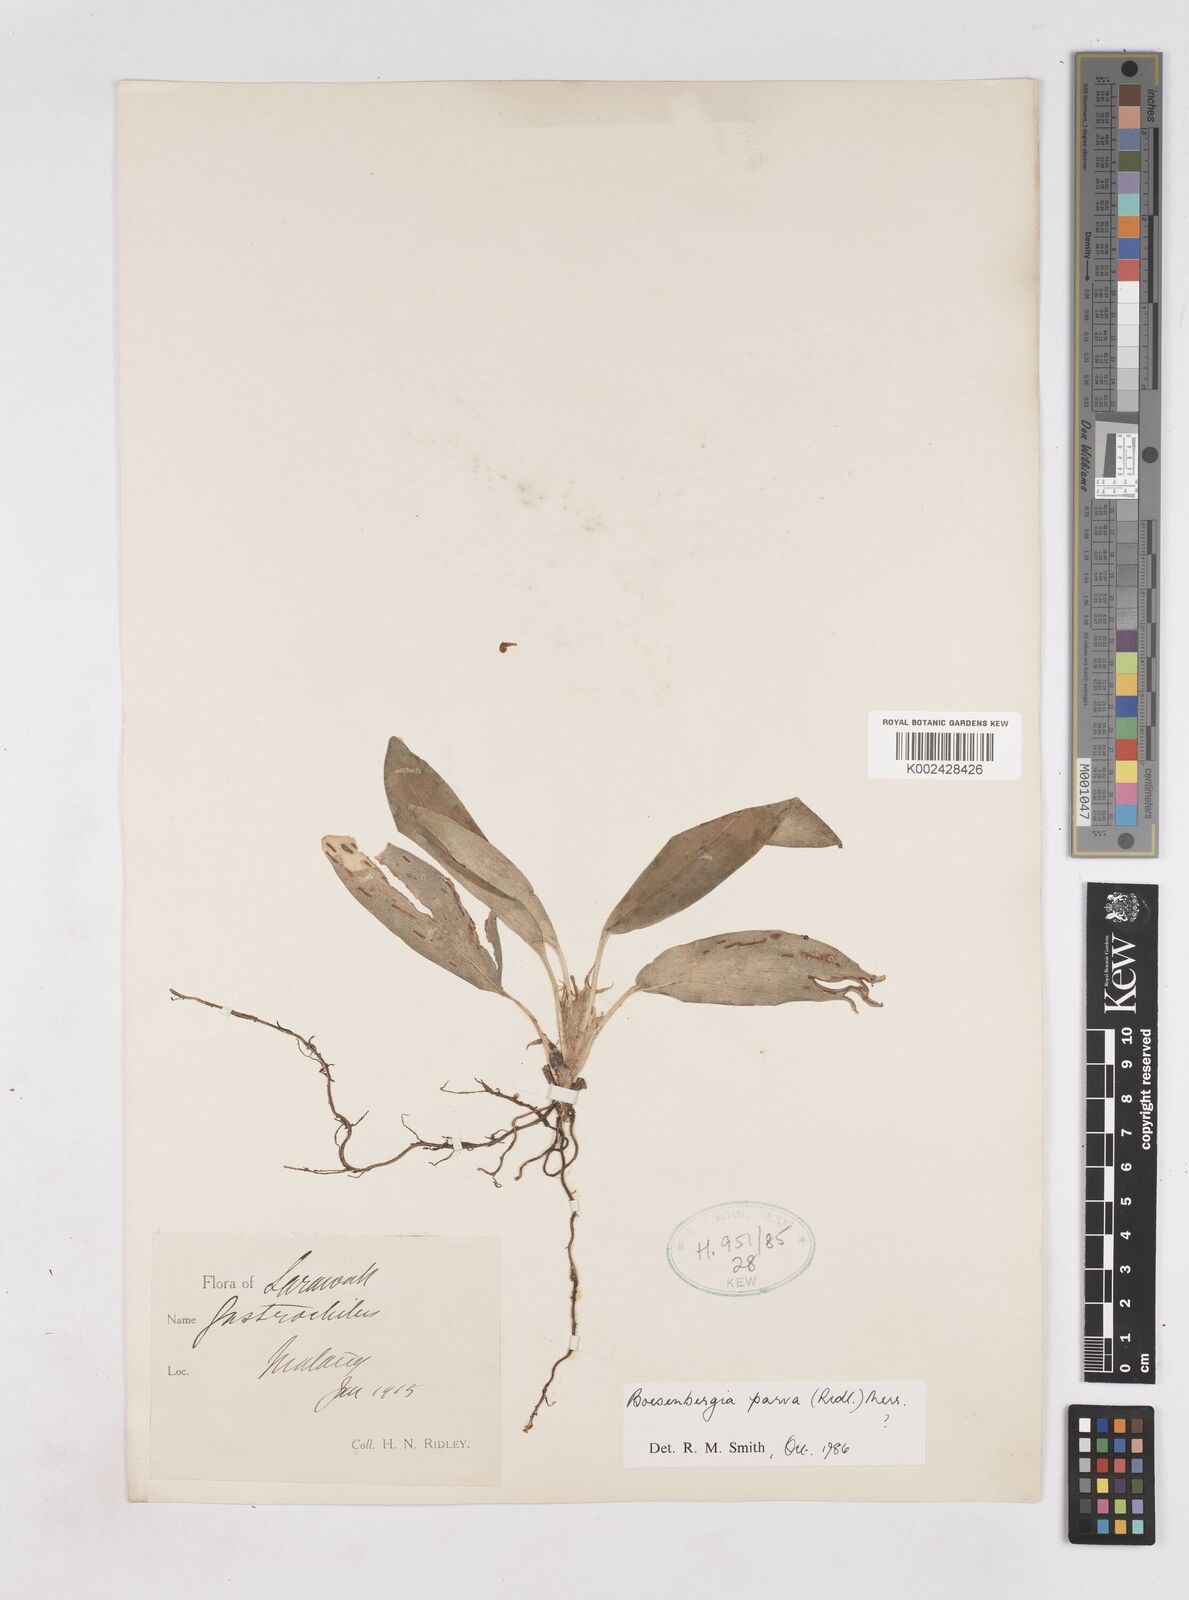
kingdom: Plantae
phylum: Tracheophyta
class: Liliopsida
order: Zingiberales
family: Zingiberaceae
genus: Boesenbergia
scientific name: Boesenbergia parva
